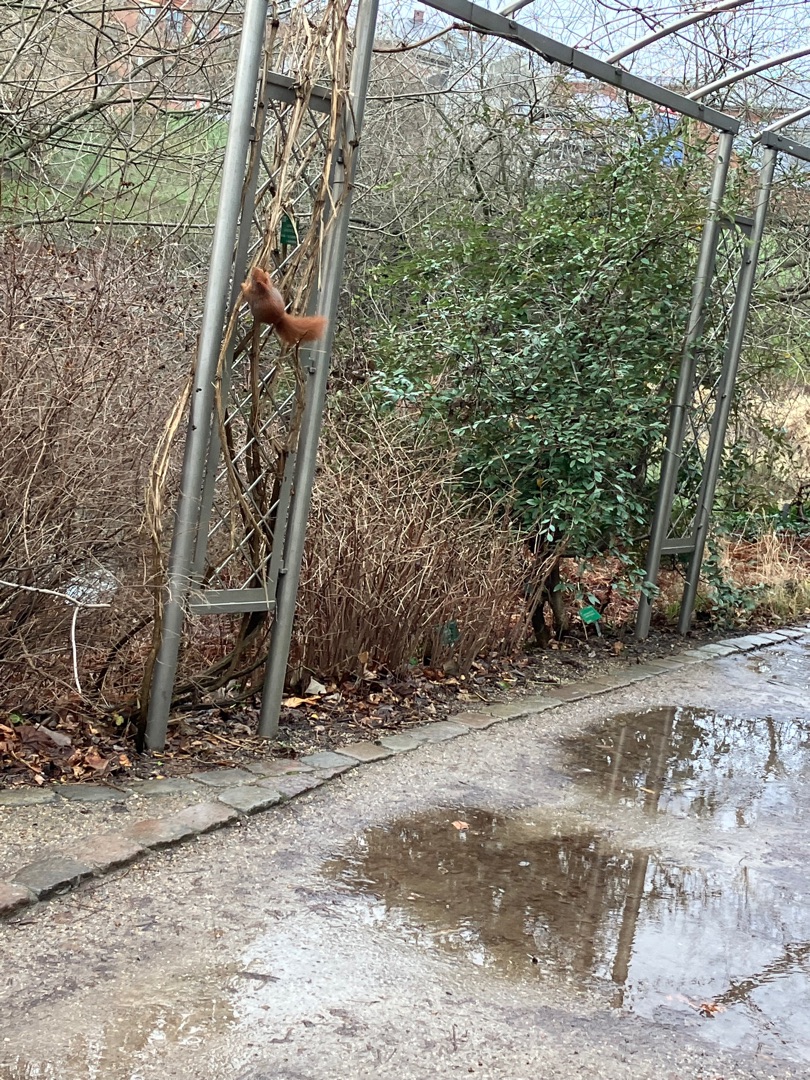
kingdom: Animalia
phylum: Chordata
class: Mammalia
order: Rodentia
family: Sciuridae
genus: Sciurus
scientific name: Sciurus vulgaris
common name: Egern
